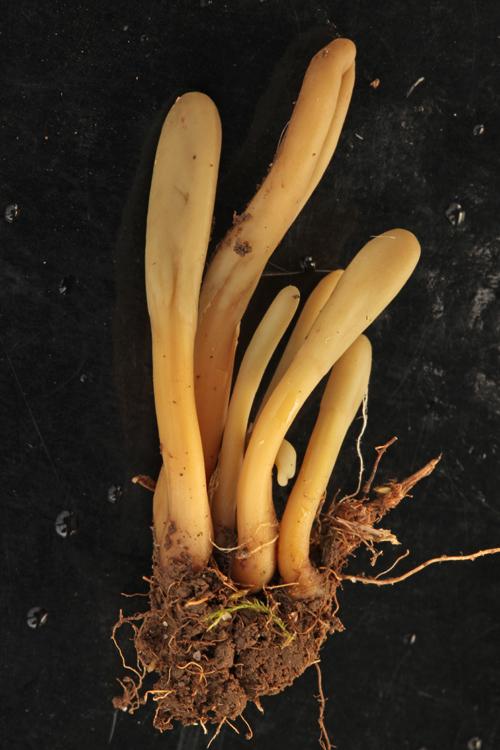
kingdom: Fungi
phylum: Ascomycota
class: Leotiomycetes
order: Helotiales
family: Lachnaceae
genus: Microglossum
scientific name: Microglossum
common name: farvetunge
